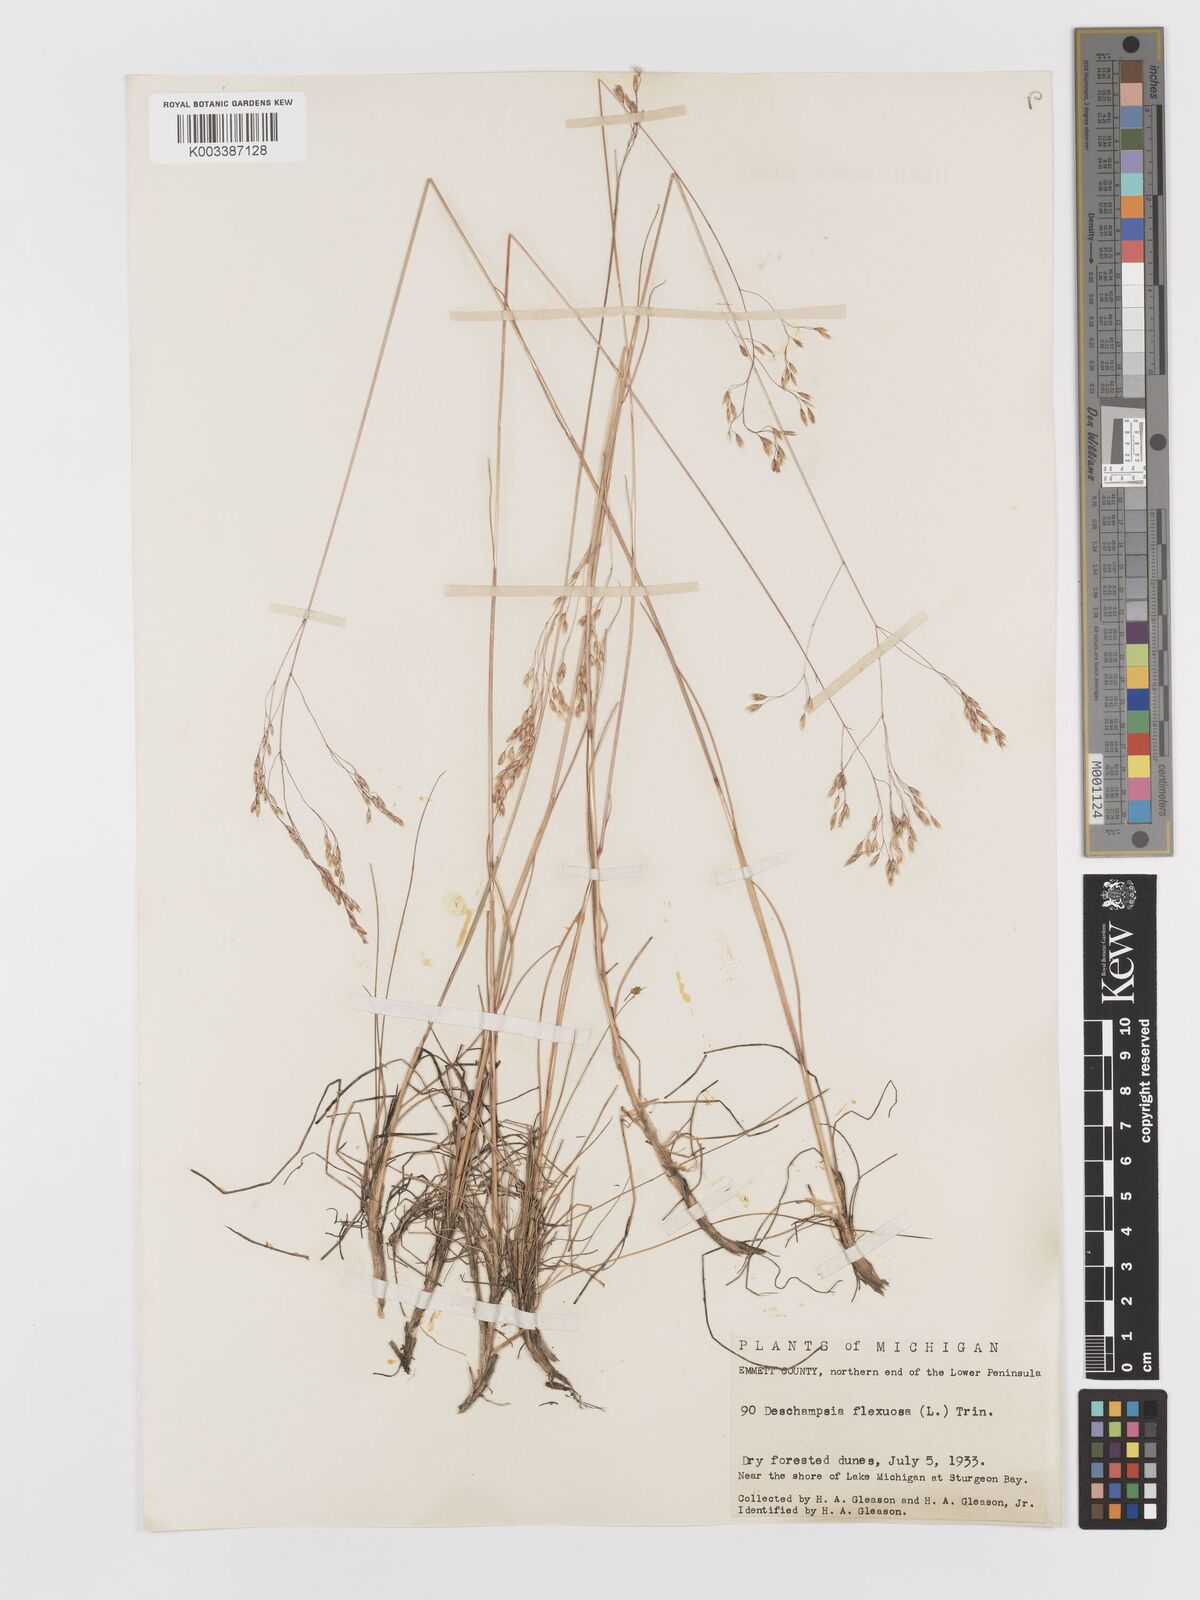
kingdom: Plantae
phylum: Tracheophyta
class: Liliopsida
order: Poales
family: Poaceae
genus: Avenella
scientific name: Avenella flexuosa
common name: Wavy hairgrass
